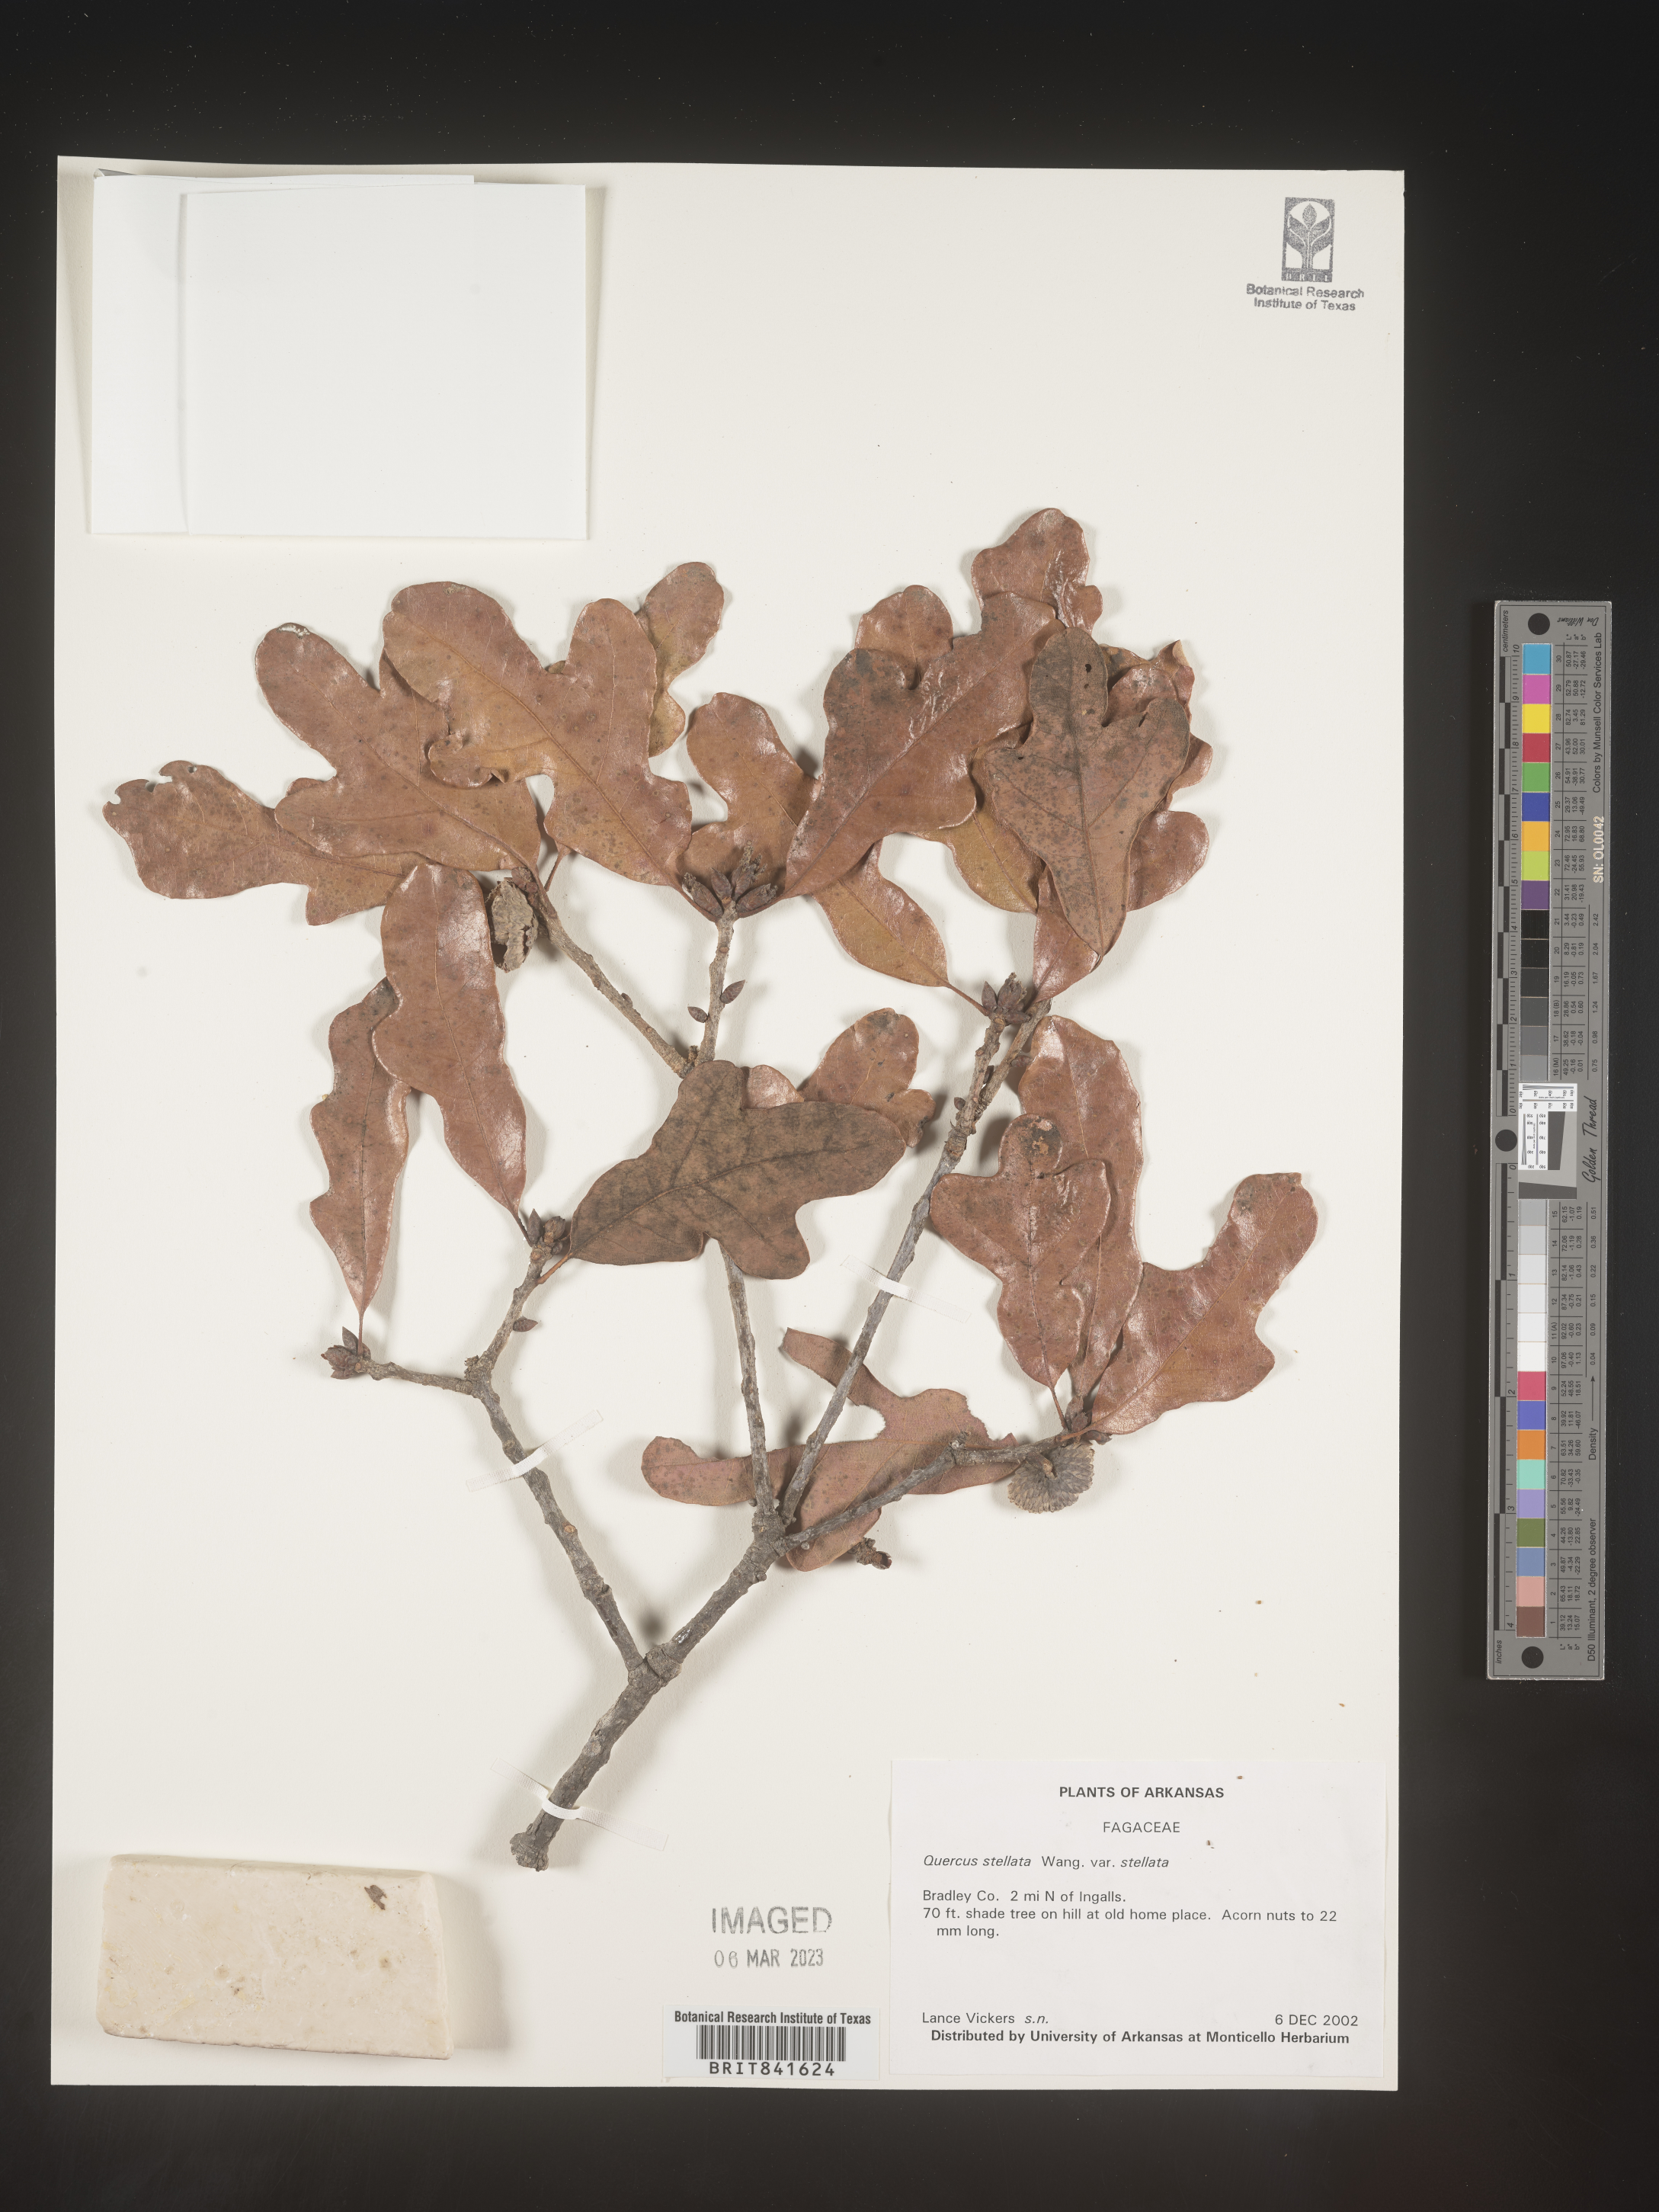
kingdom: Plantae
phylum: Tracheophyta
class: Magnoliopsida
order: Fagales
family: Fagaceae
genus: Quercus
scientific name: Quercus stellata
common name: Post oak
